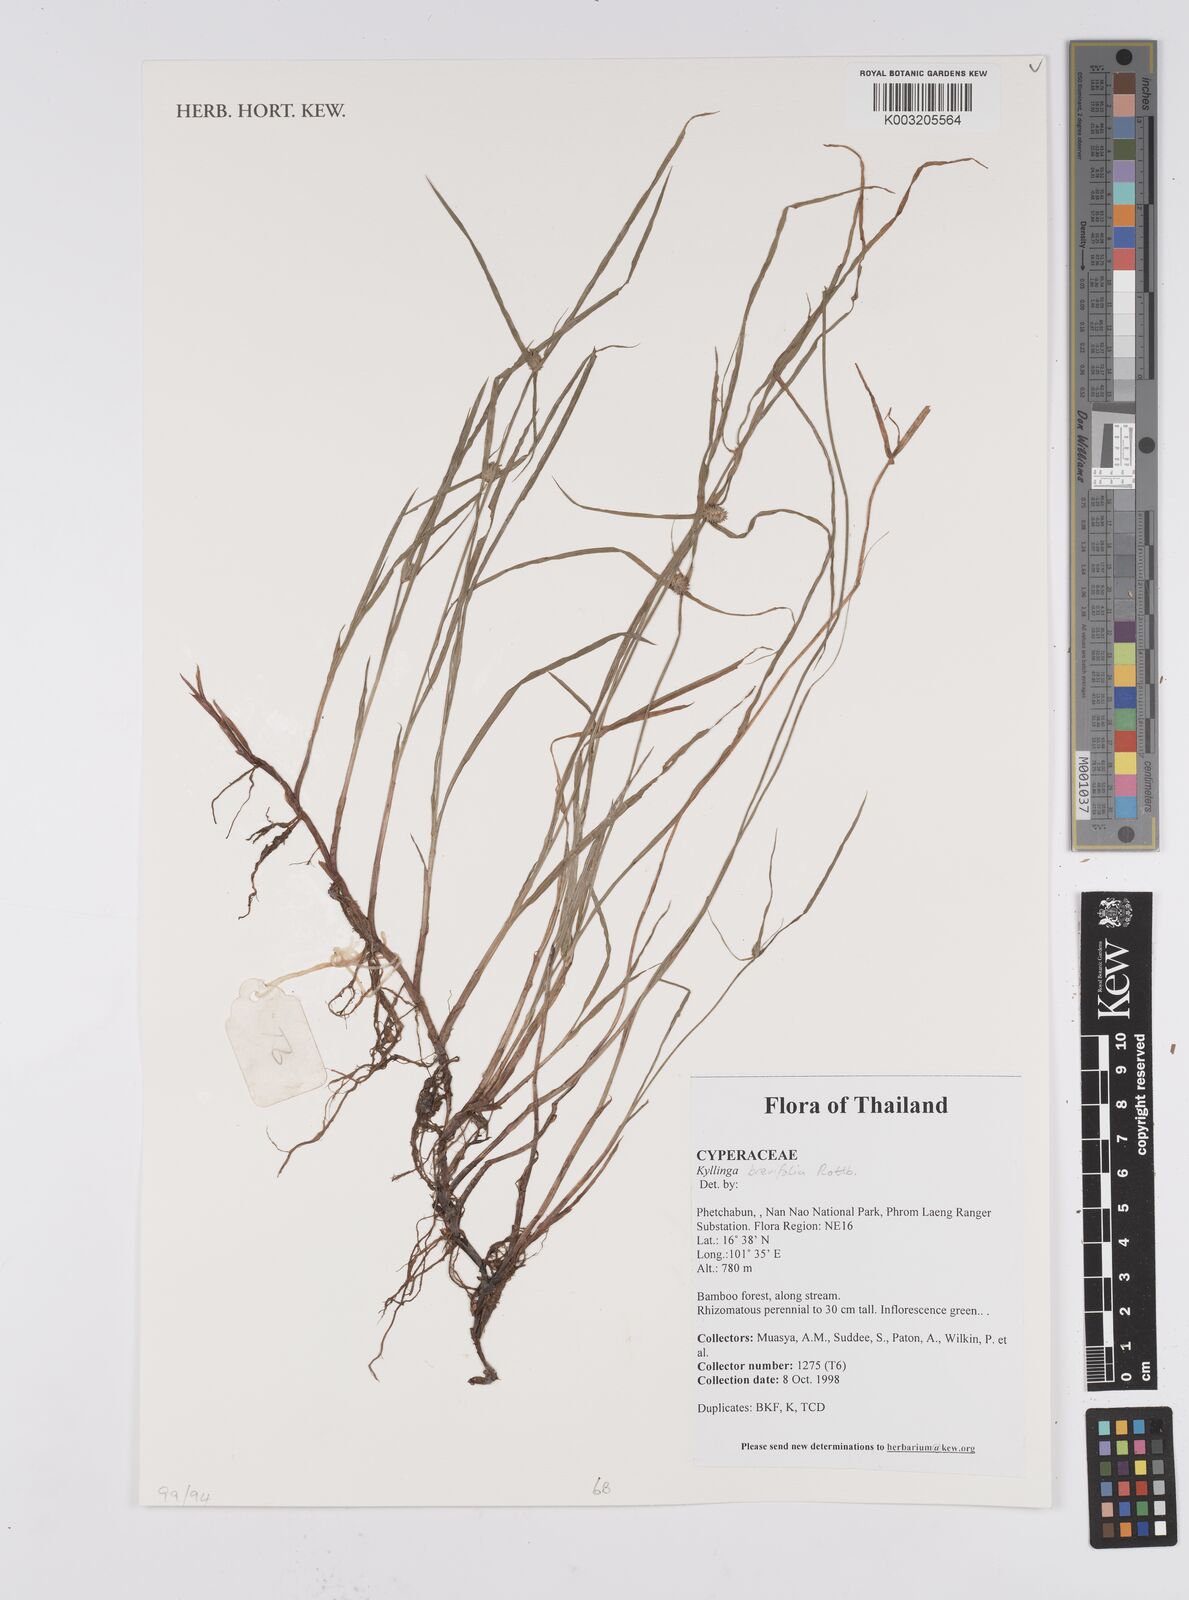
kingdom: Plantae
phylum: Tracheophyta
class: Liliopsida
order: Poales
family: Cyperaceae
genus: Cyperus
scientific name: Cyperus brevifolius
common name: Globe kyllinga
